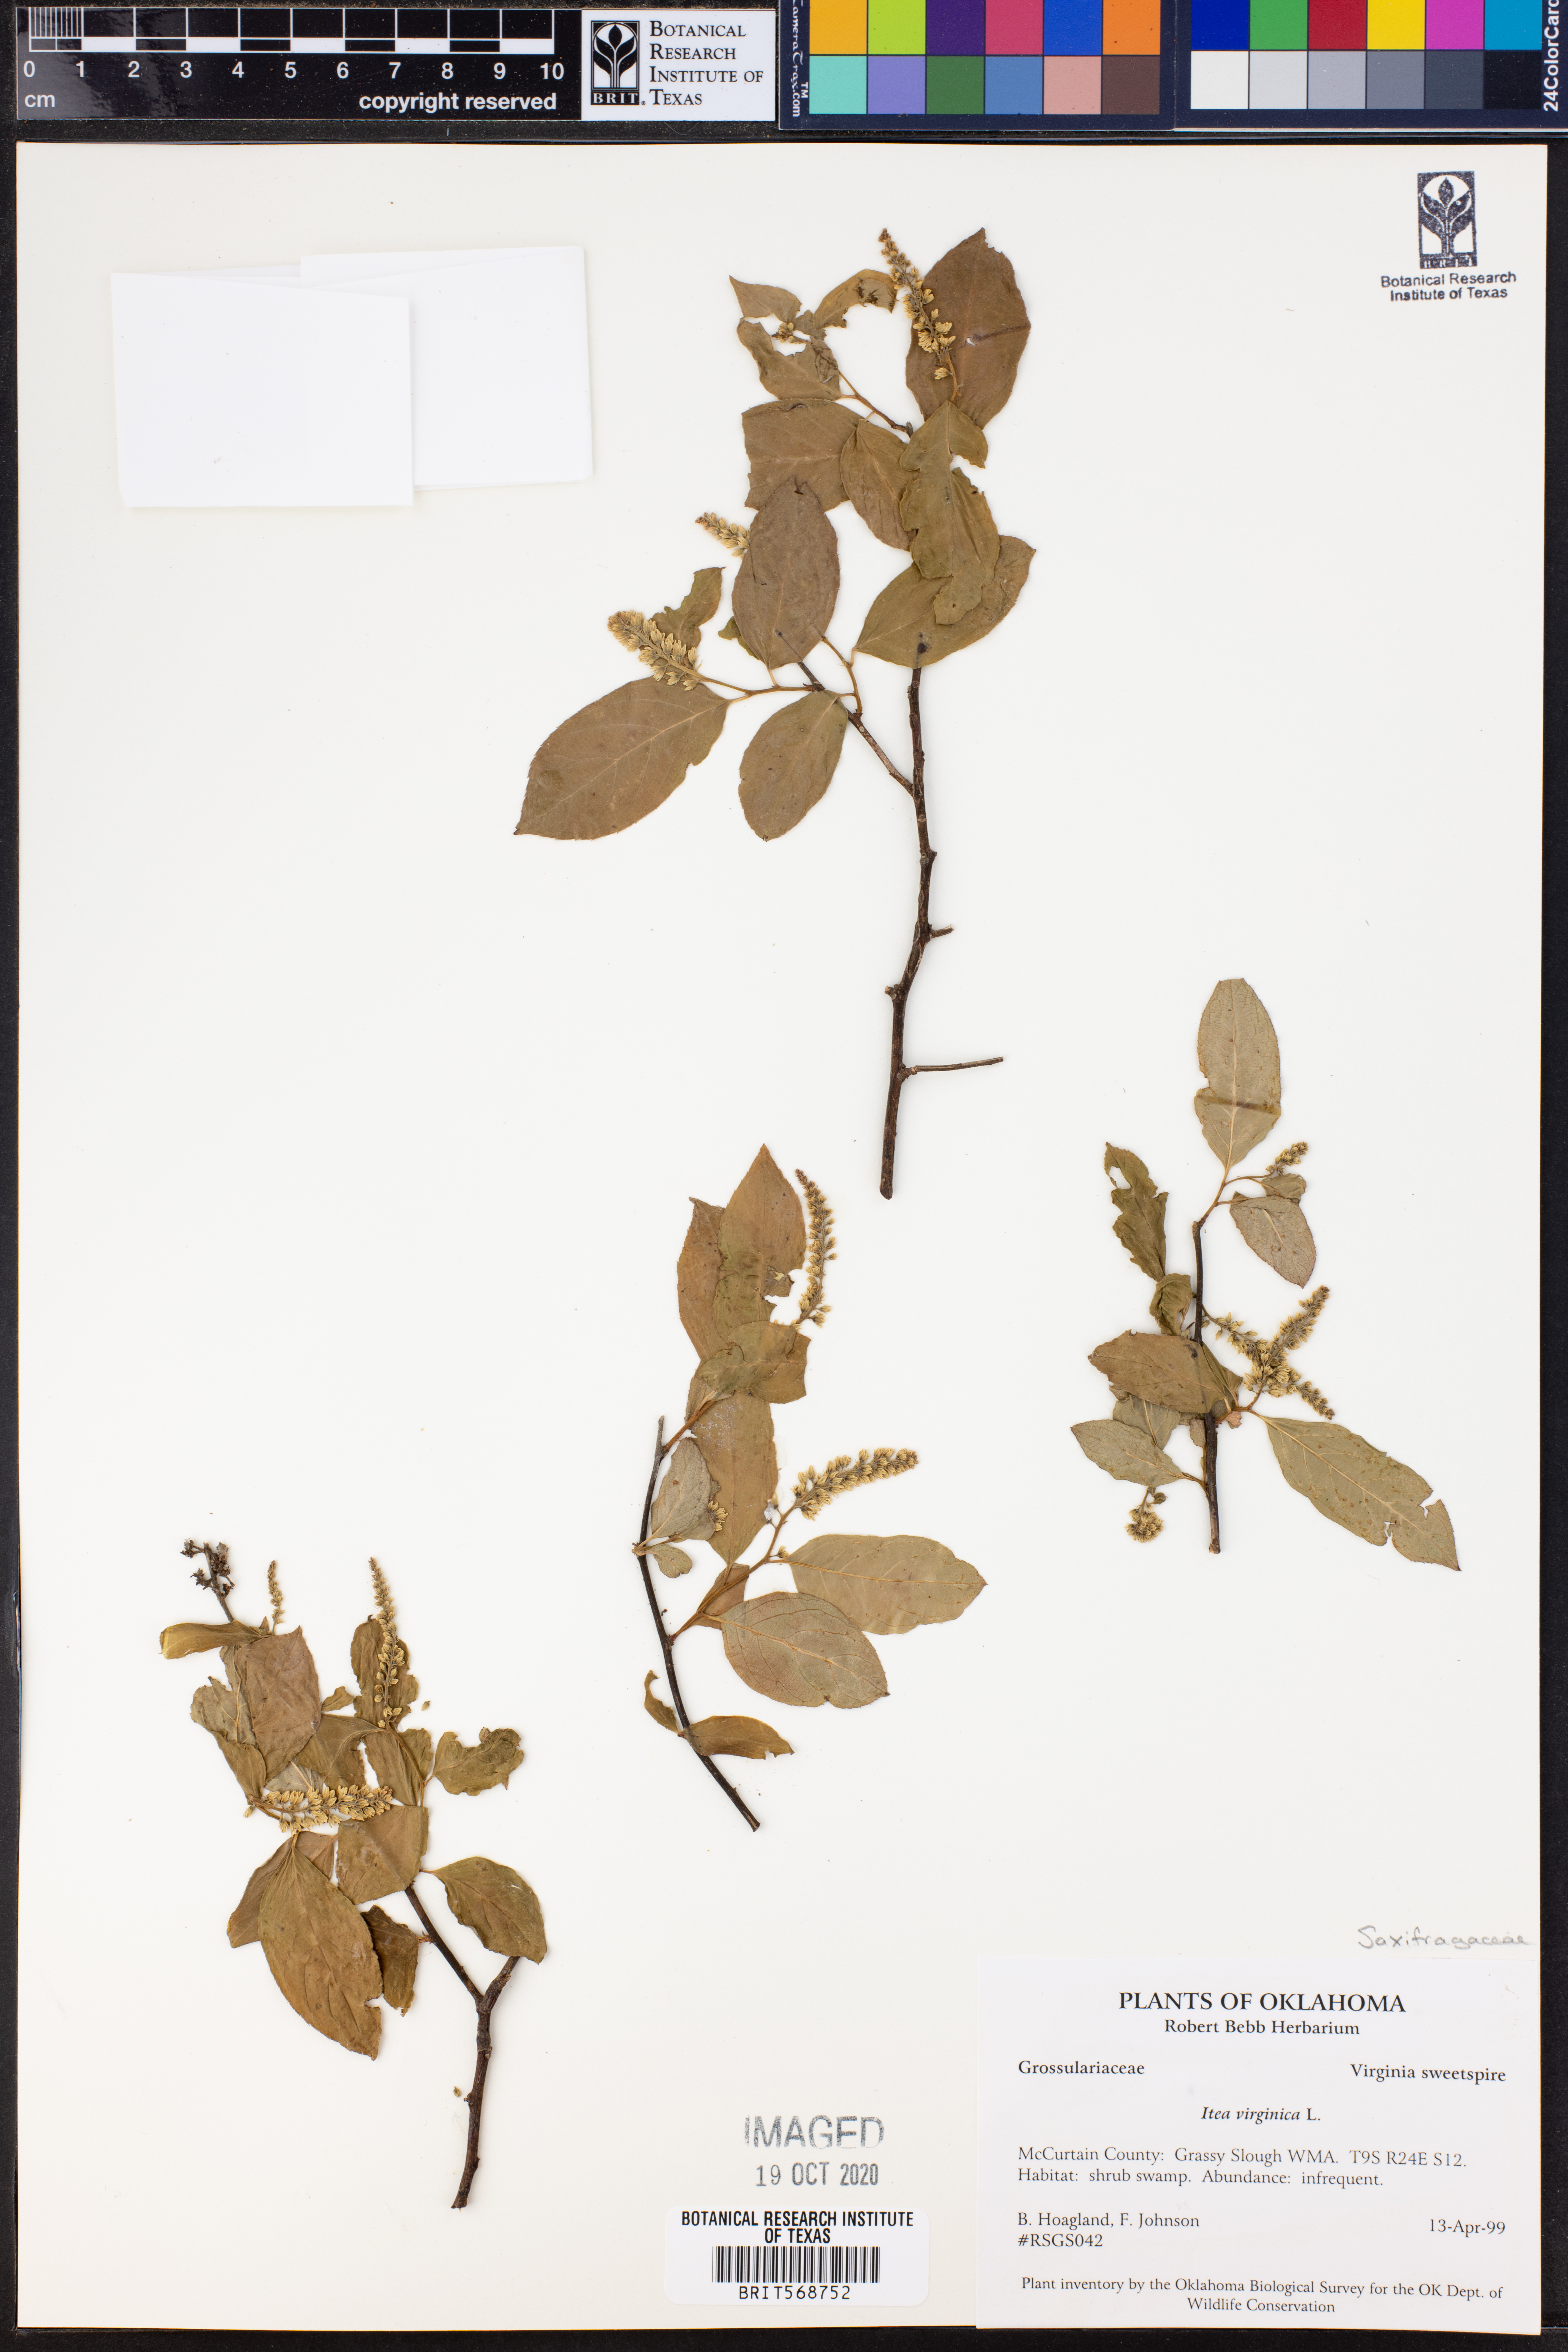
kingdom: Plantae
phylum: Tracheophyta
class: Magnoliopsida
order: Saxifragales
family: Iteaceae
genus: Itea
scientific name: Itea virginica
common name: Sweetspire
